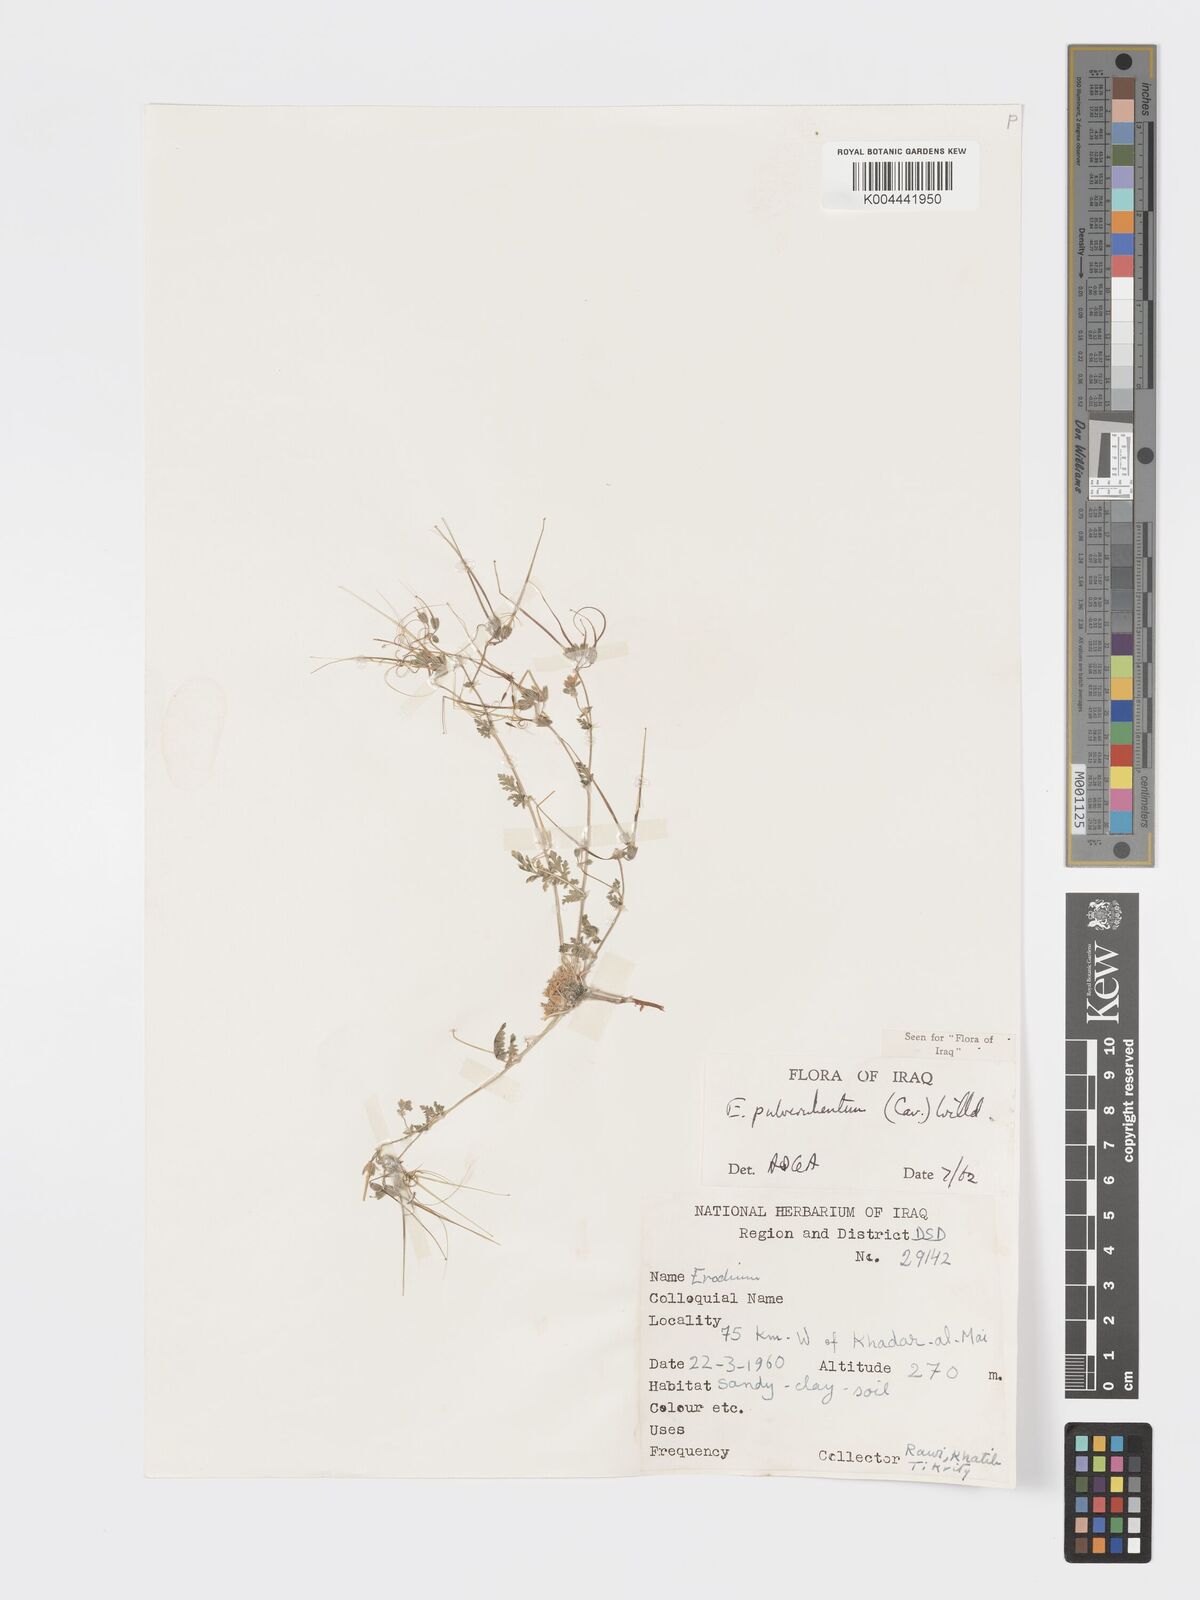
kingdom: Plantae
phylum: Tracheophyta
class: Magnoliopsida
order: Geraniales
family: Geraniaceae
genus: Erodium
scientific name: Erodium laciniatum
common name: Cutleaf stork's bill
